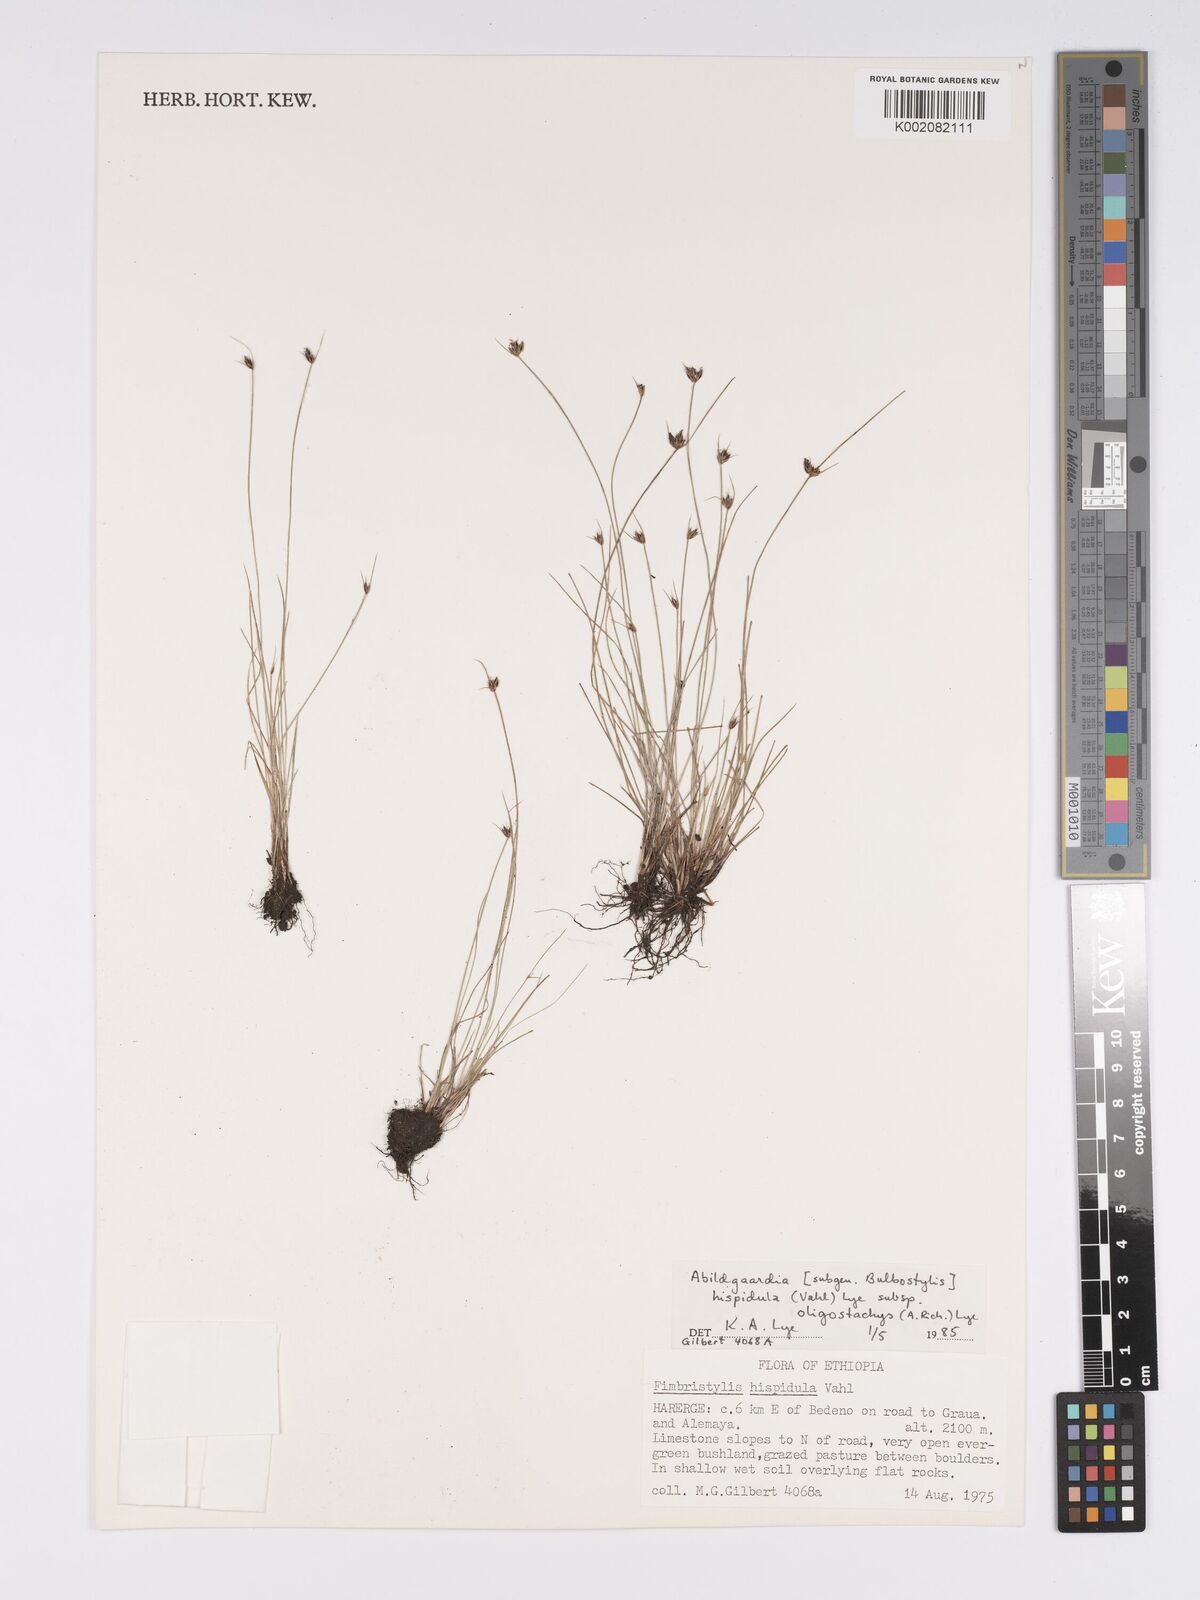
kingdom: Plantae
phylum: Tracheophyta
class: Liliopsida
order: Poales
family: Cyperaceae
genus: Bulbostylis
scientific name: Bulbostylis hispidula
